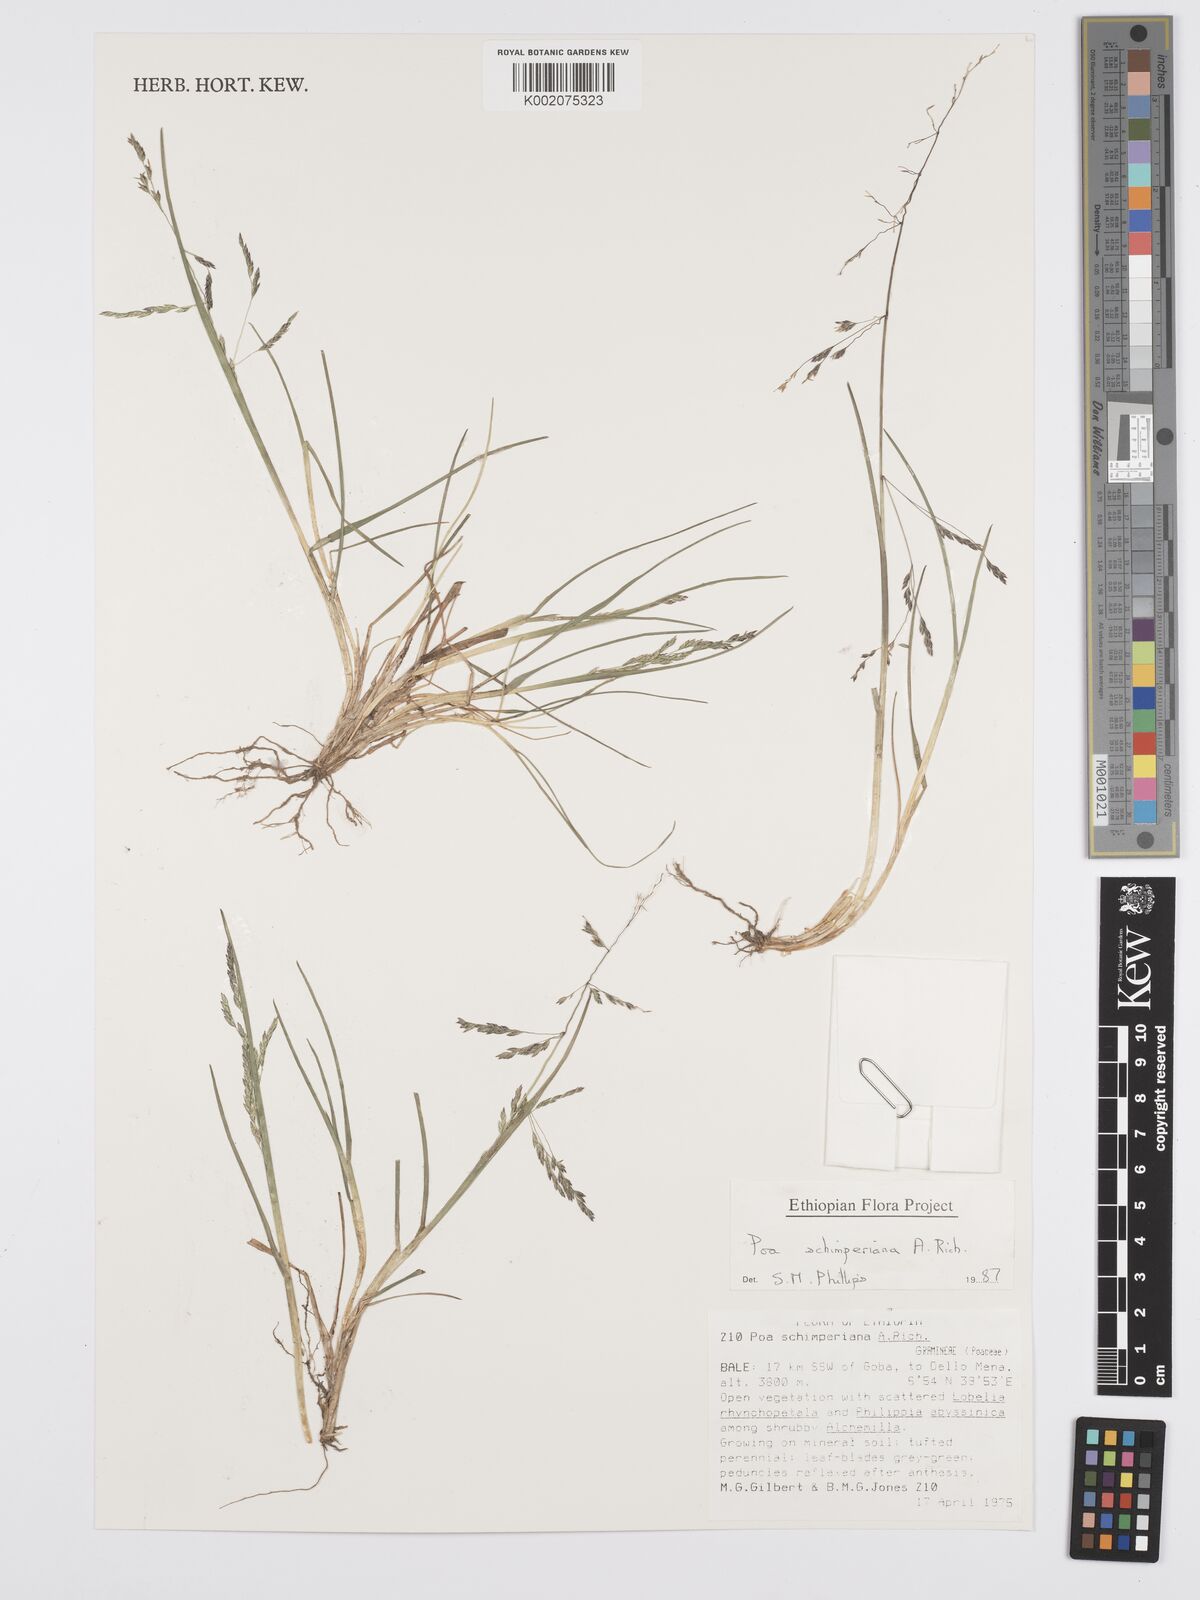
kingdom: Plantae
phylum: Tracheophyta
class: Liliopsida
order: Poales
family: Poaceae
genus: Poa
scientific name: Poa schimperiana
